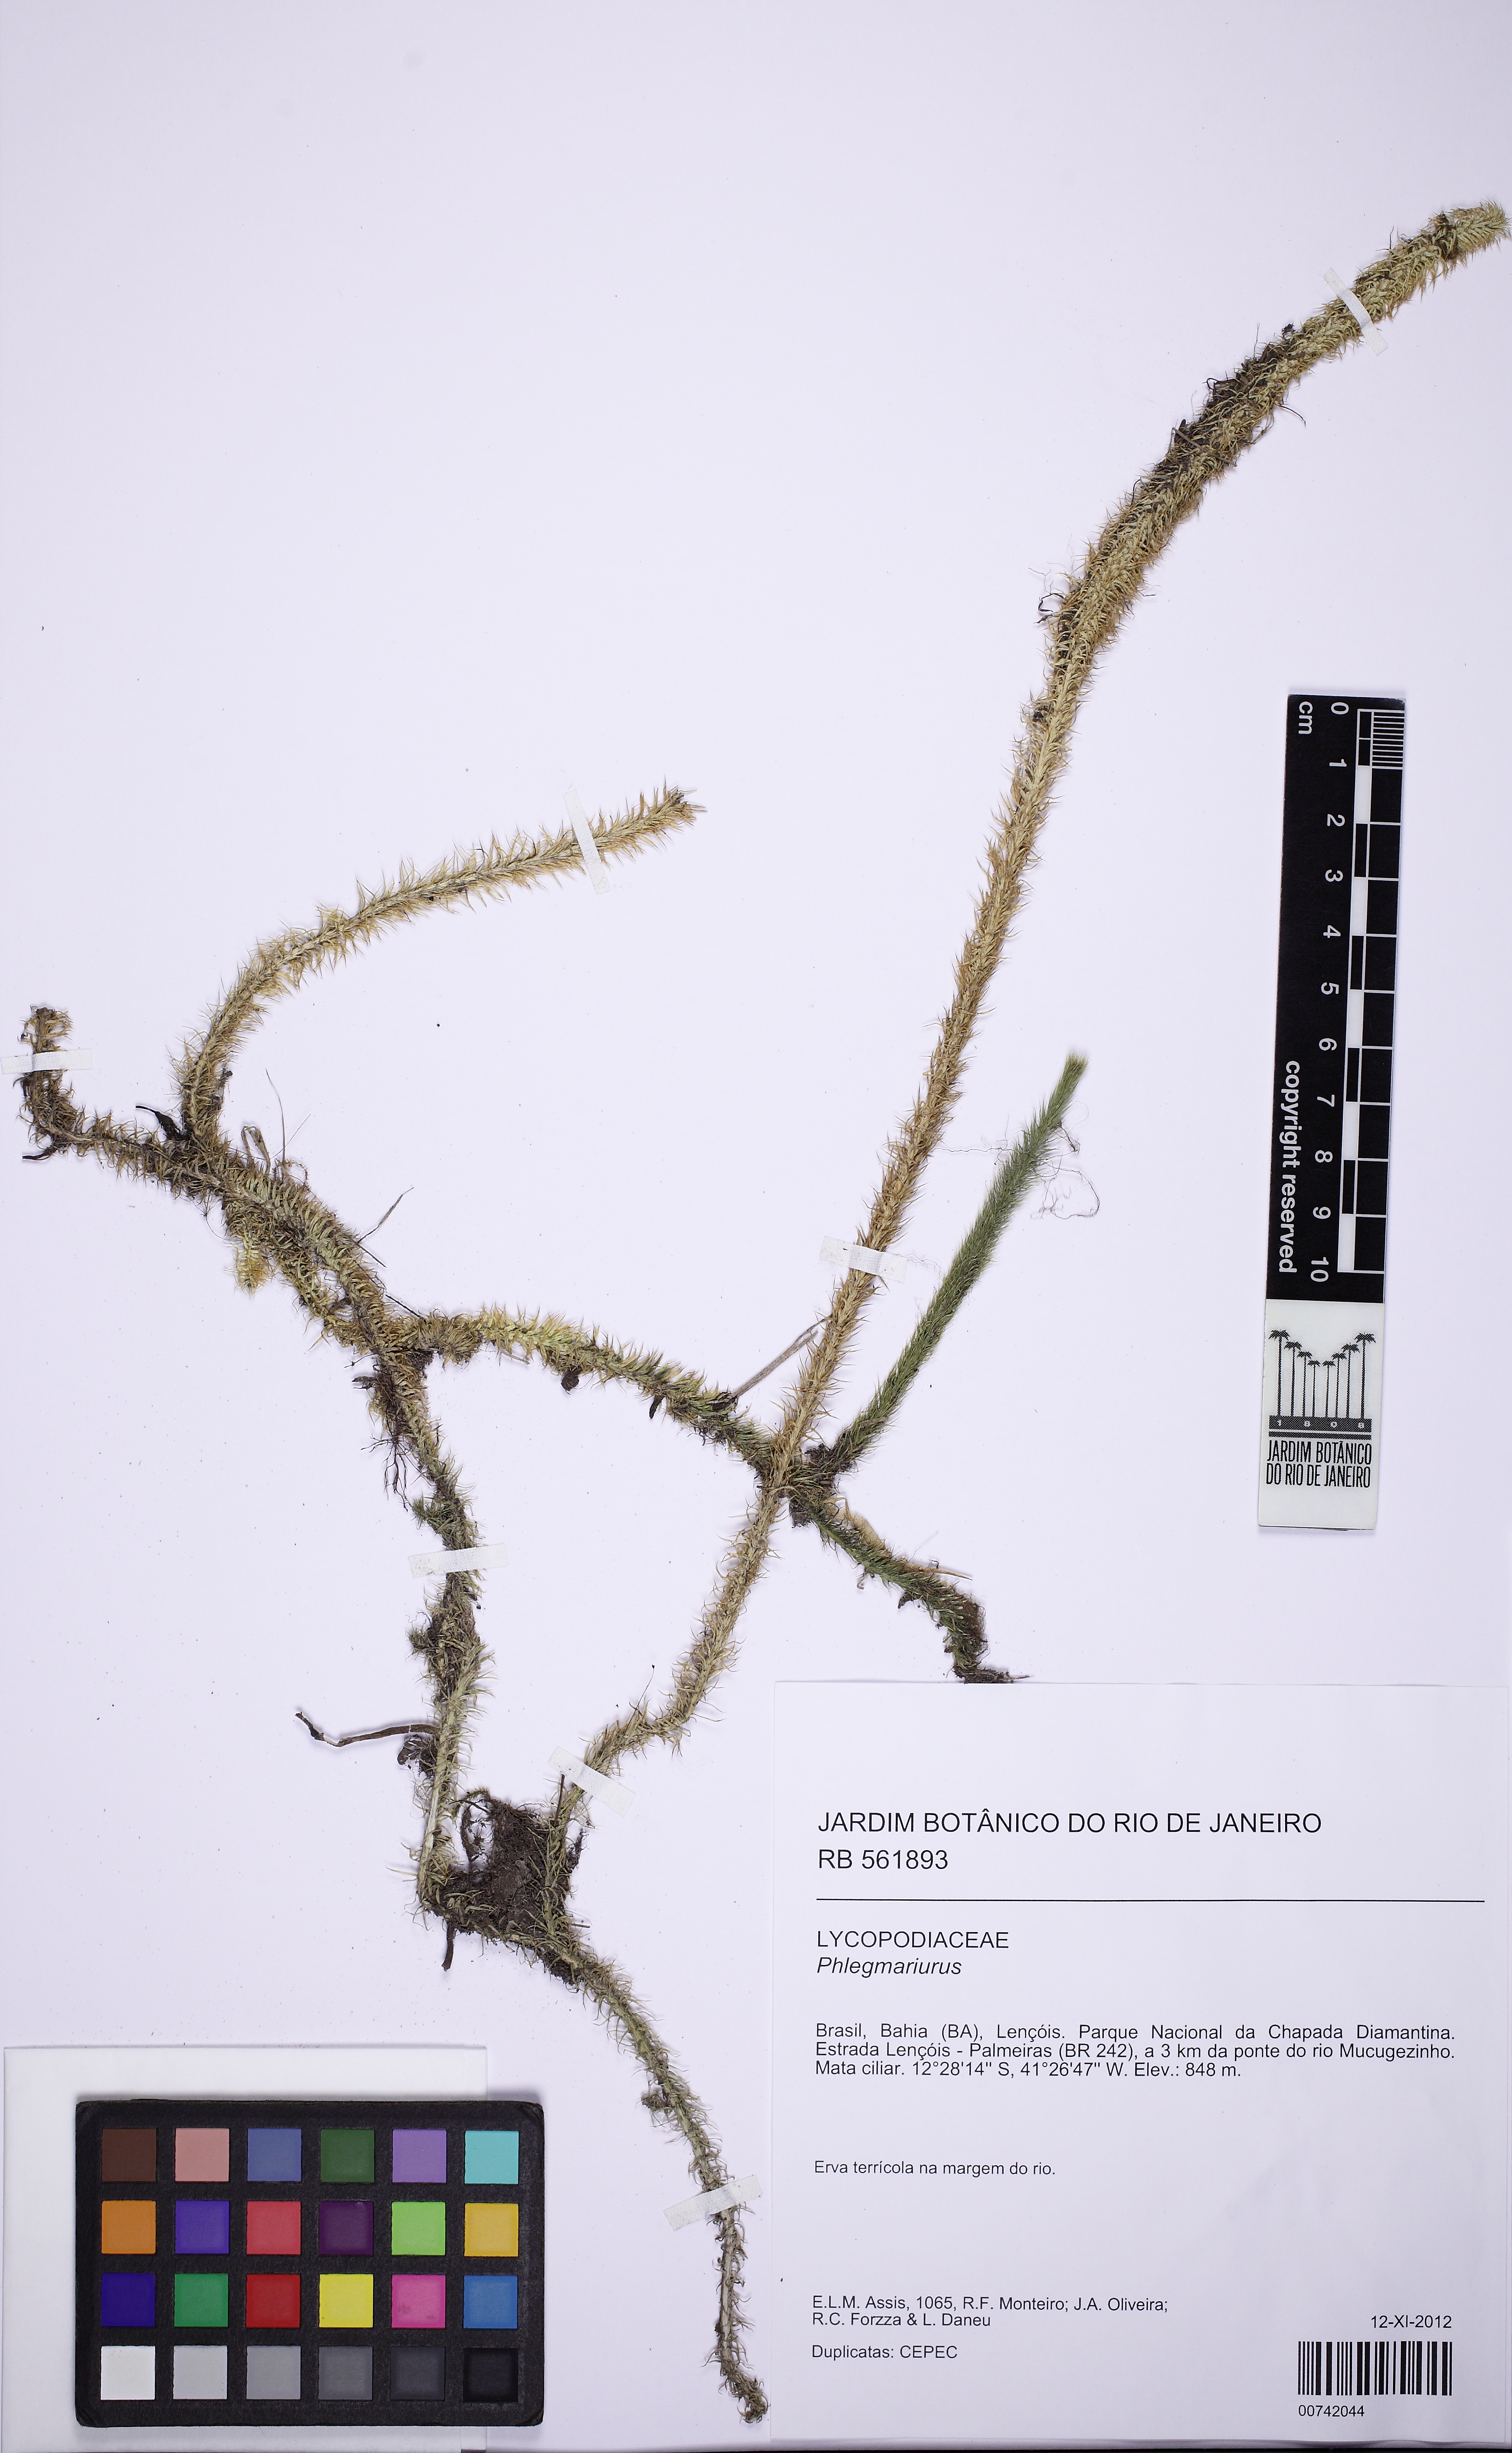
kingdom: Plantae
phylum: Tracheophyta
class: Lycopodiopsida
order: Lycopodiales
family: Lycopodiaceae
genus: Lycopodiella
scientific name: Lycopodiella longipes
